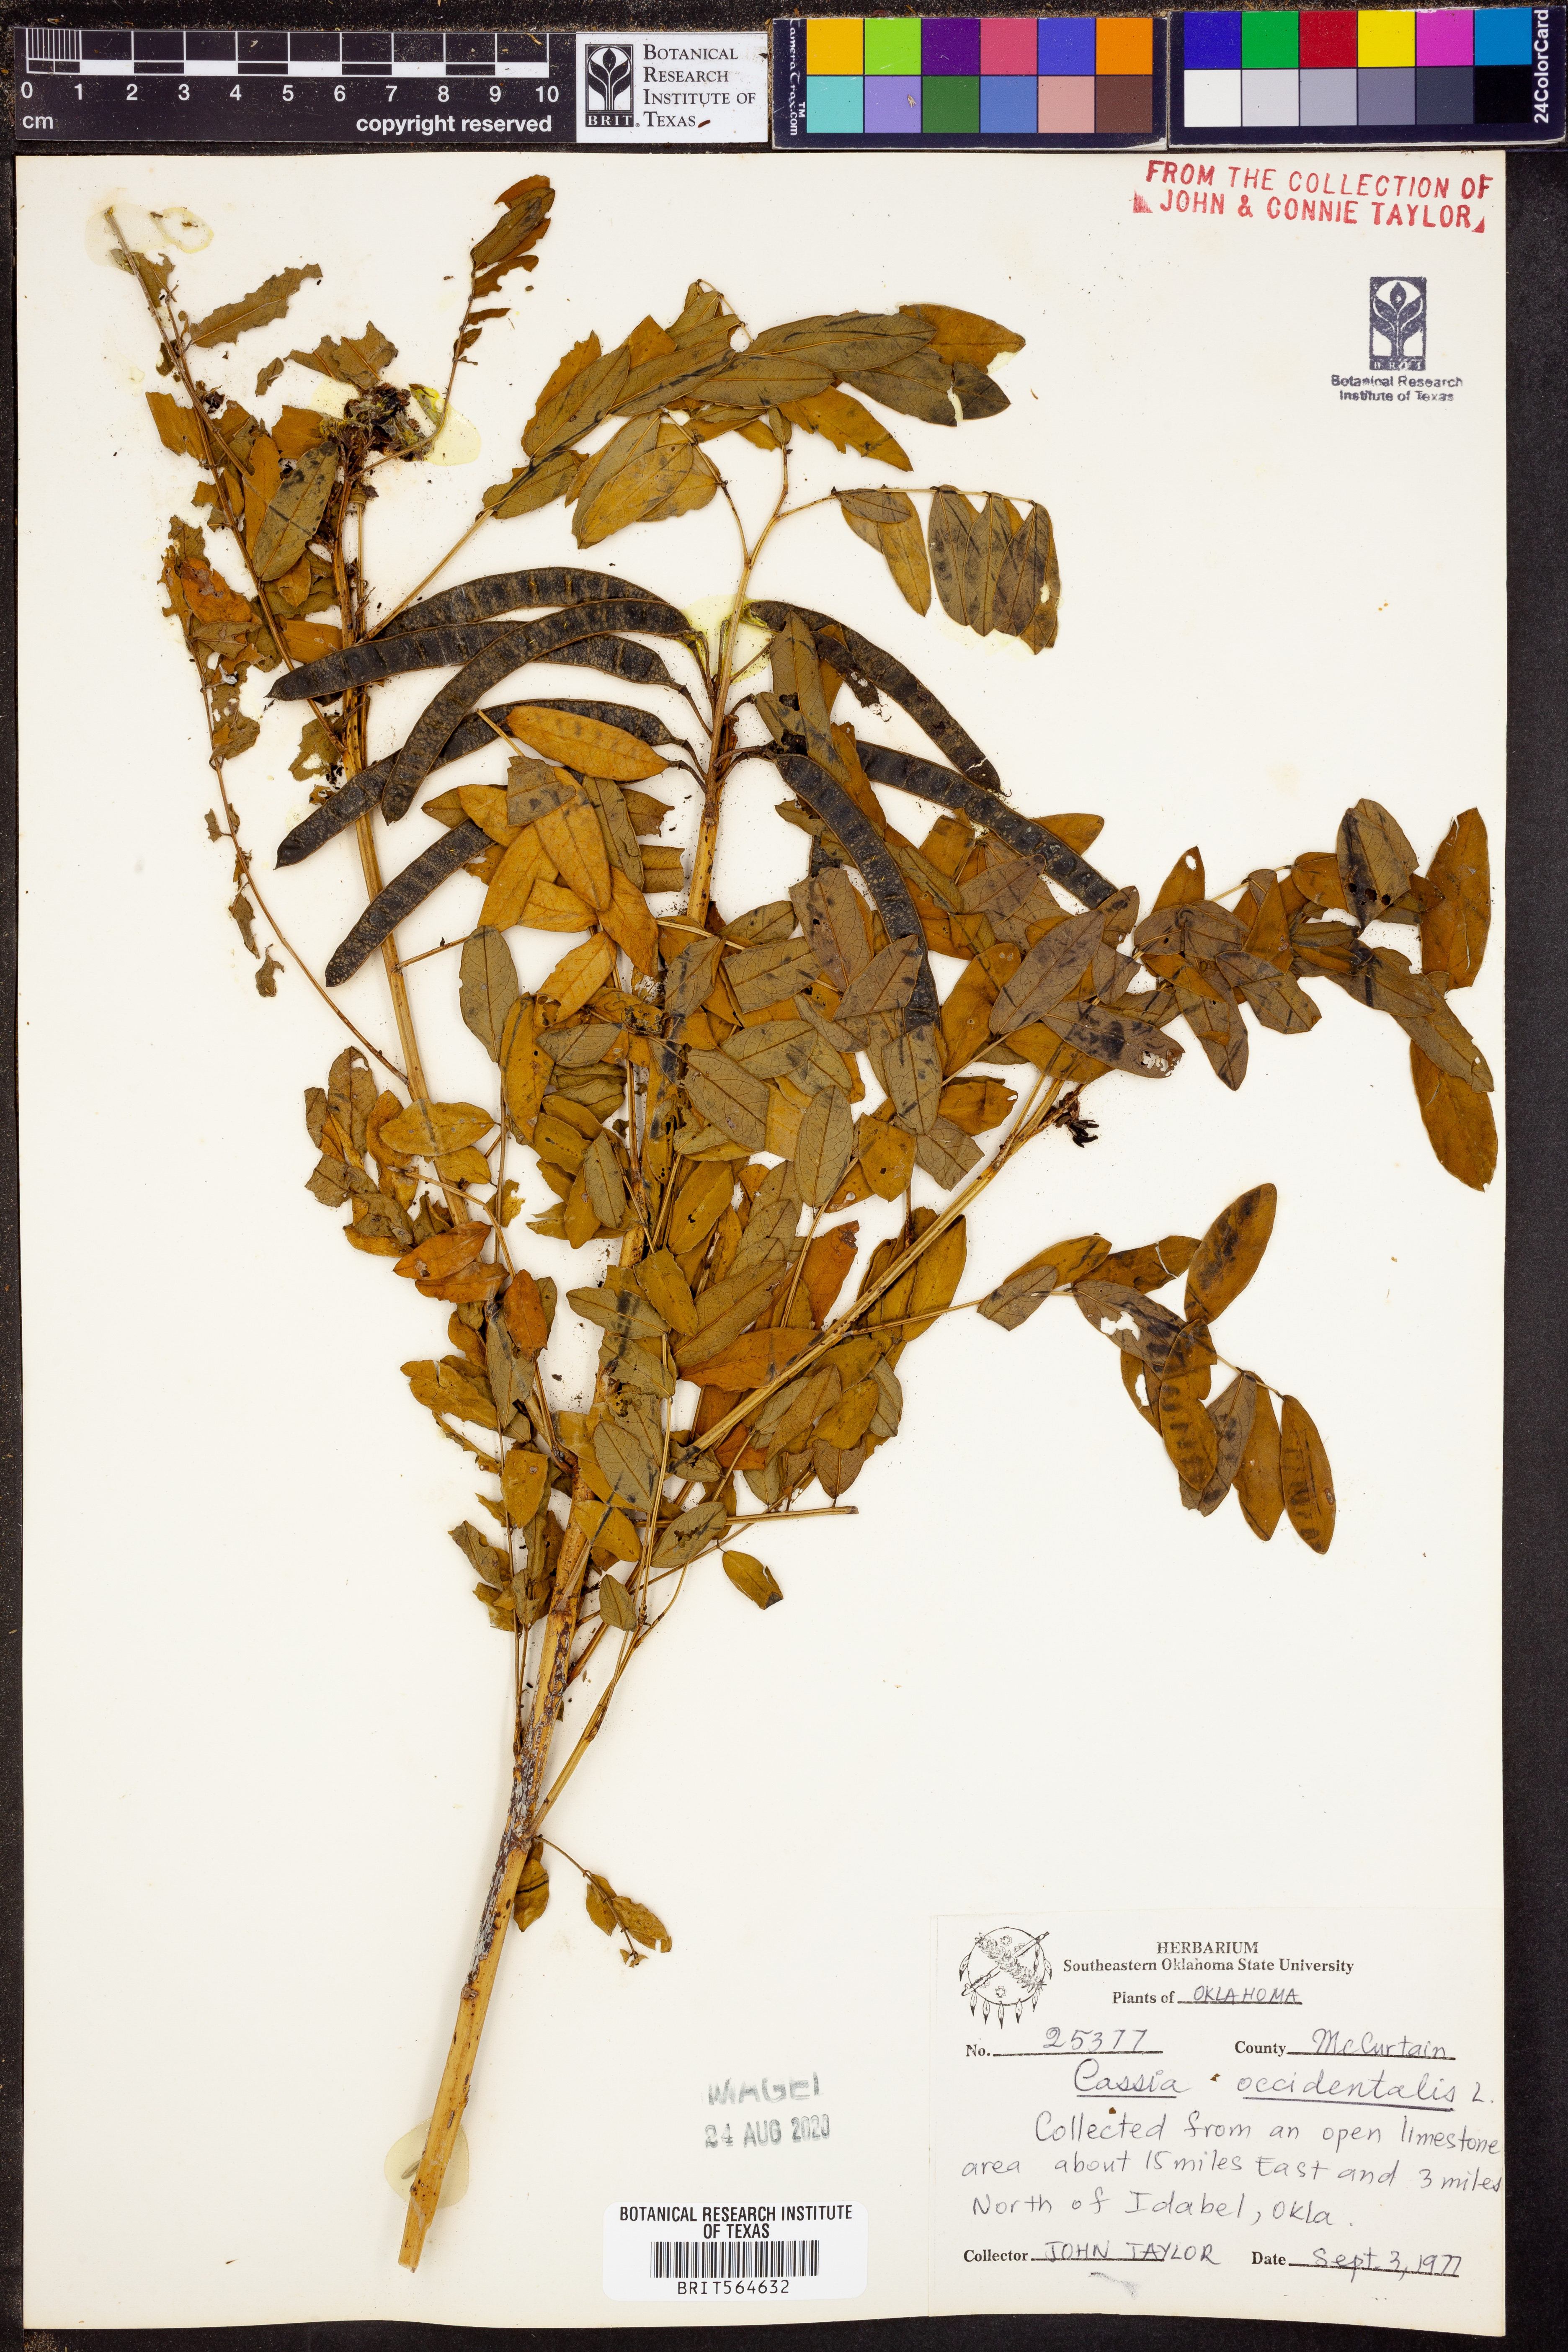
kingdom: Plantae
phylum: Tracheophyta
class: Magnoliopsida
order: Fabales
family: Fabaceae
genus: Senna
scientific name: Senna occidentalis
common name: Septicweed
